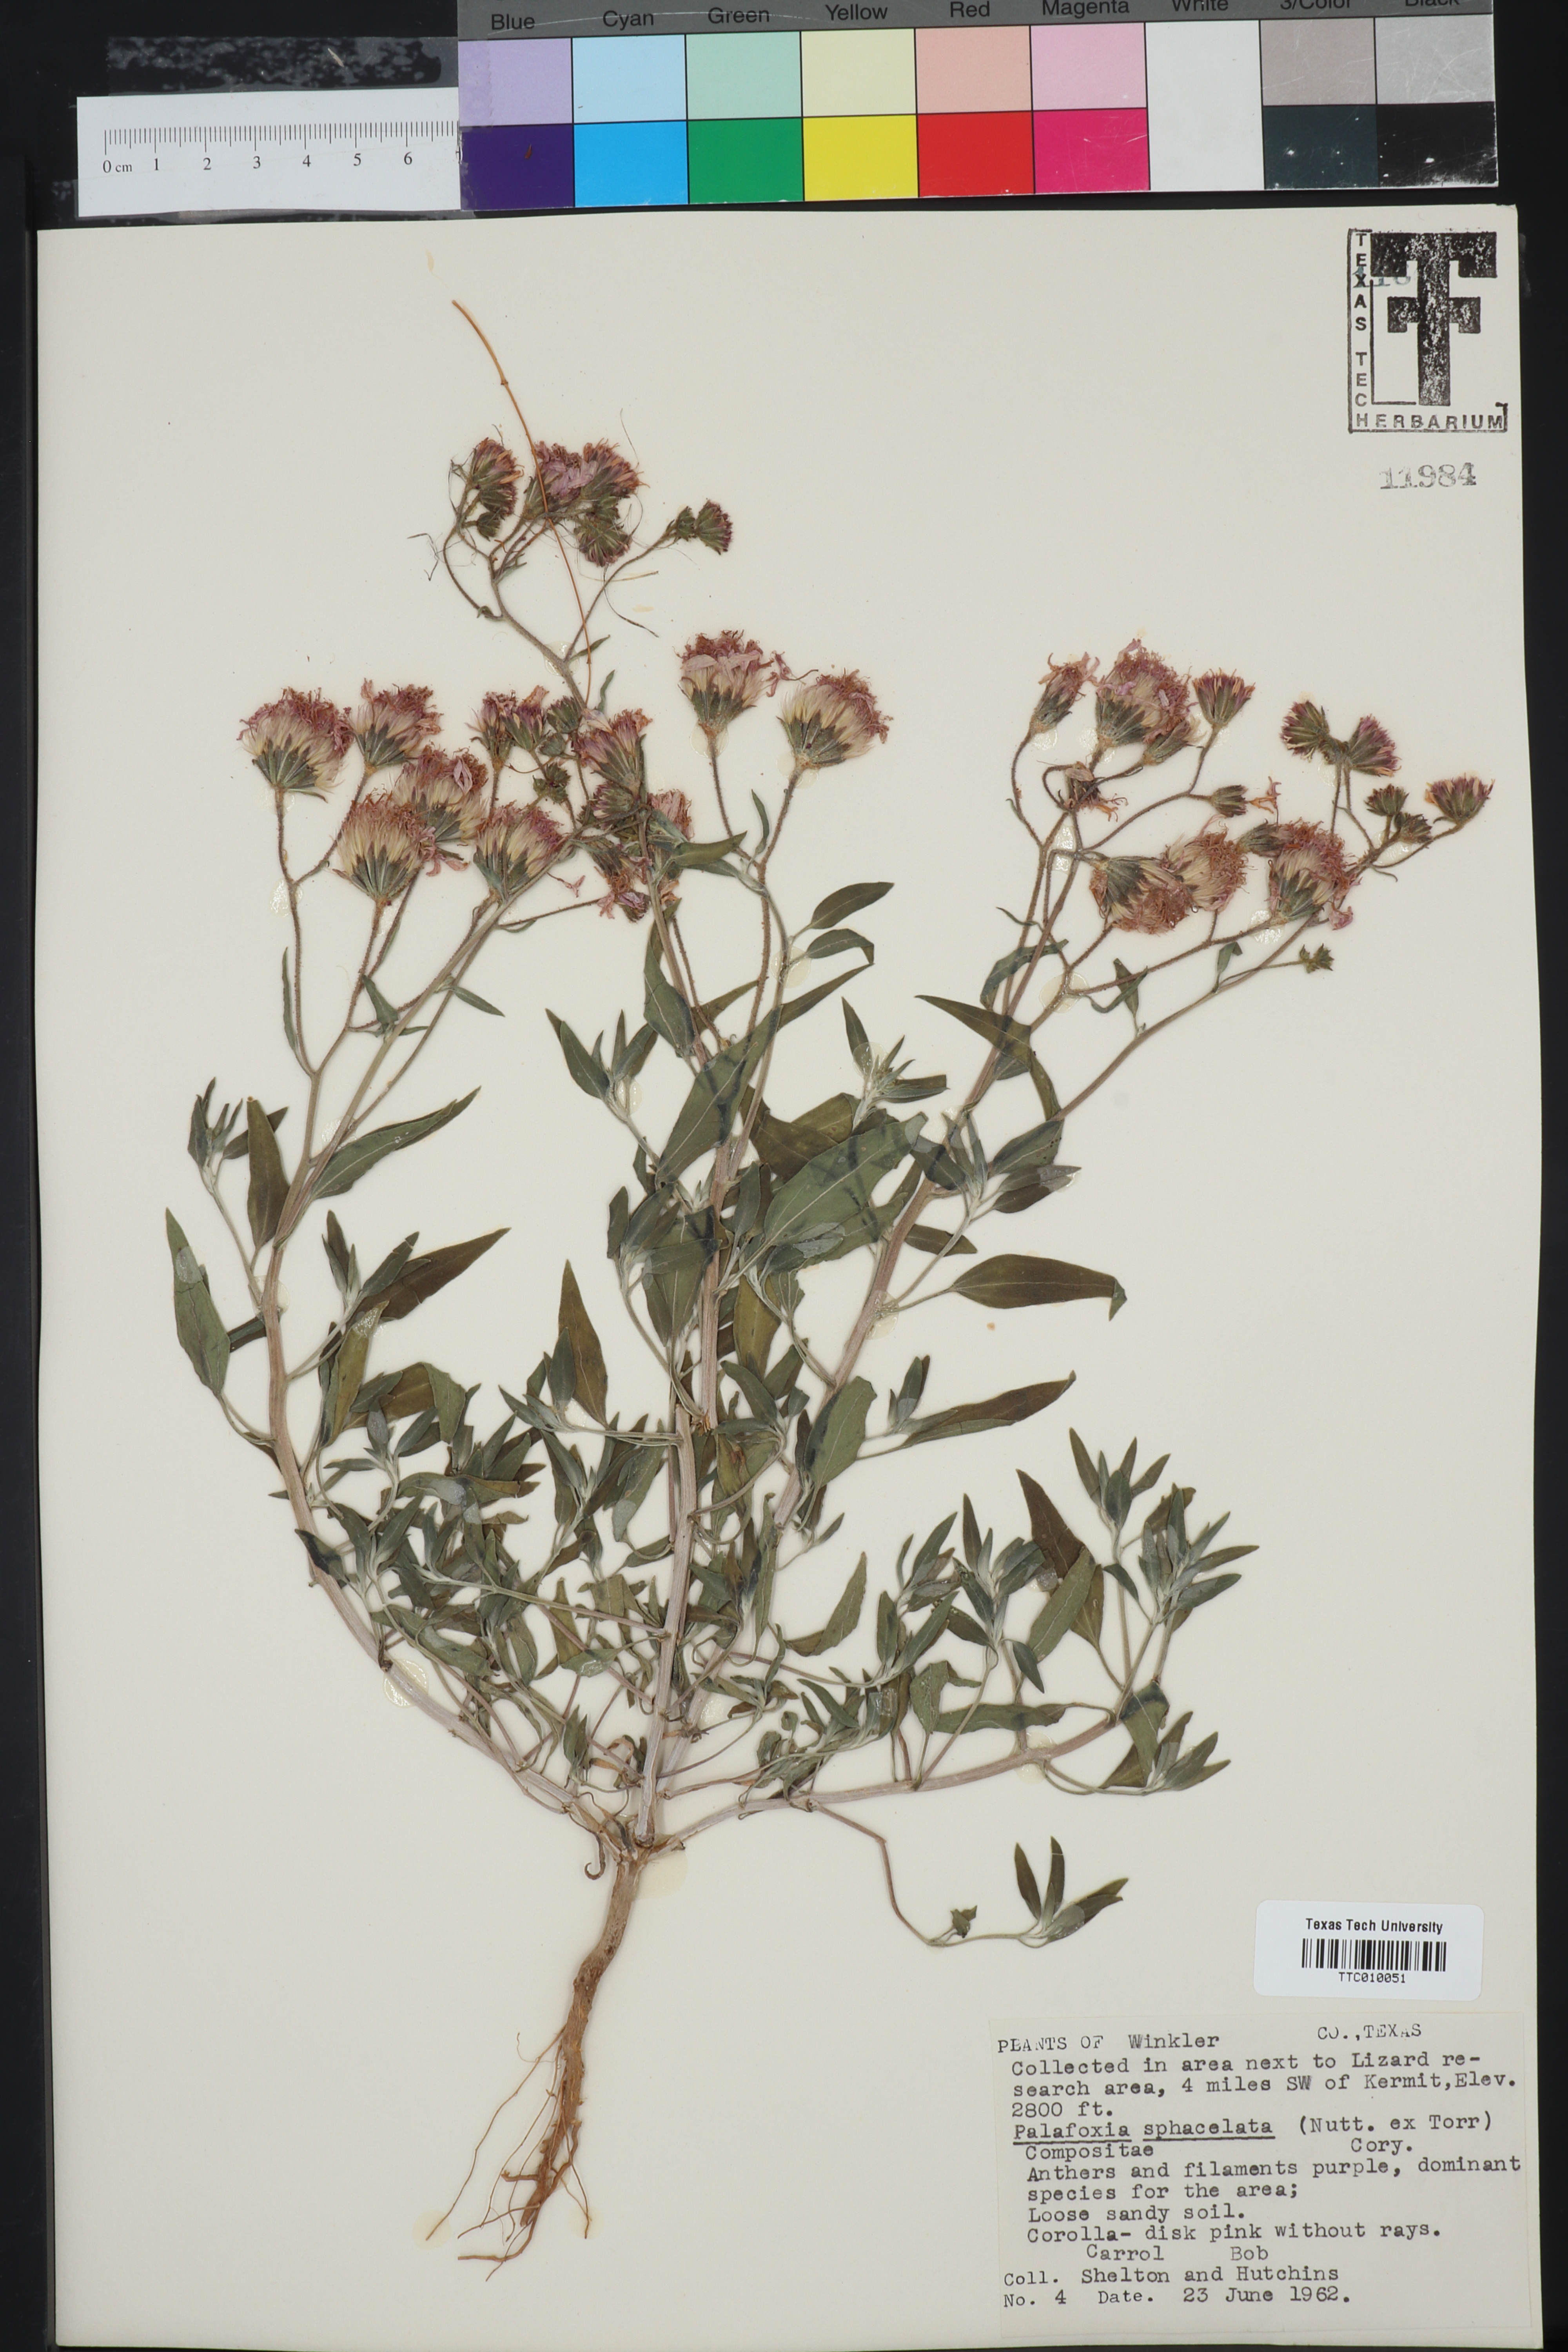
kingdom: Plantae
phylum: Tracheophyta
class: Magnoliopsida
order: Asterales
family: Asteraceae
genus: Palafoxia
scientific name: Palafoxia sphacelata
